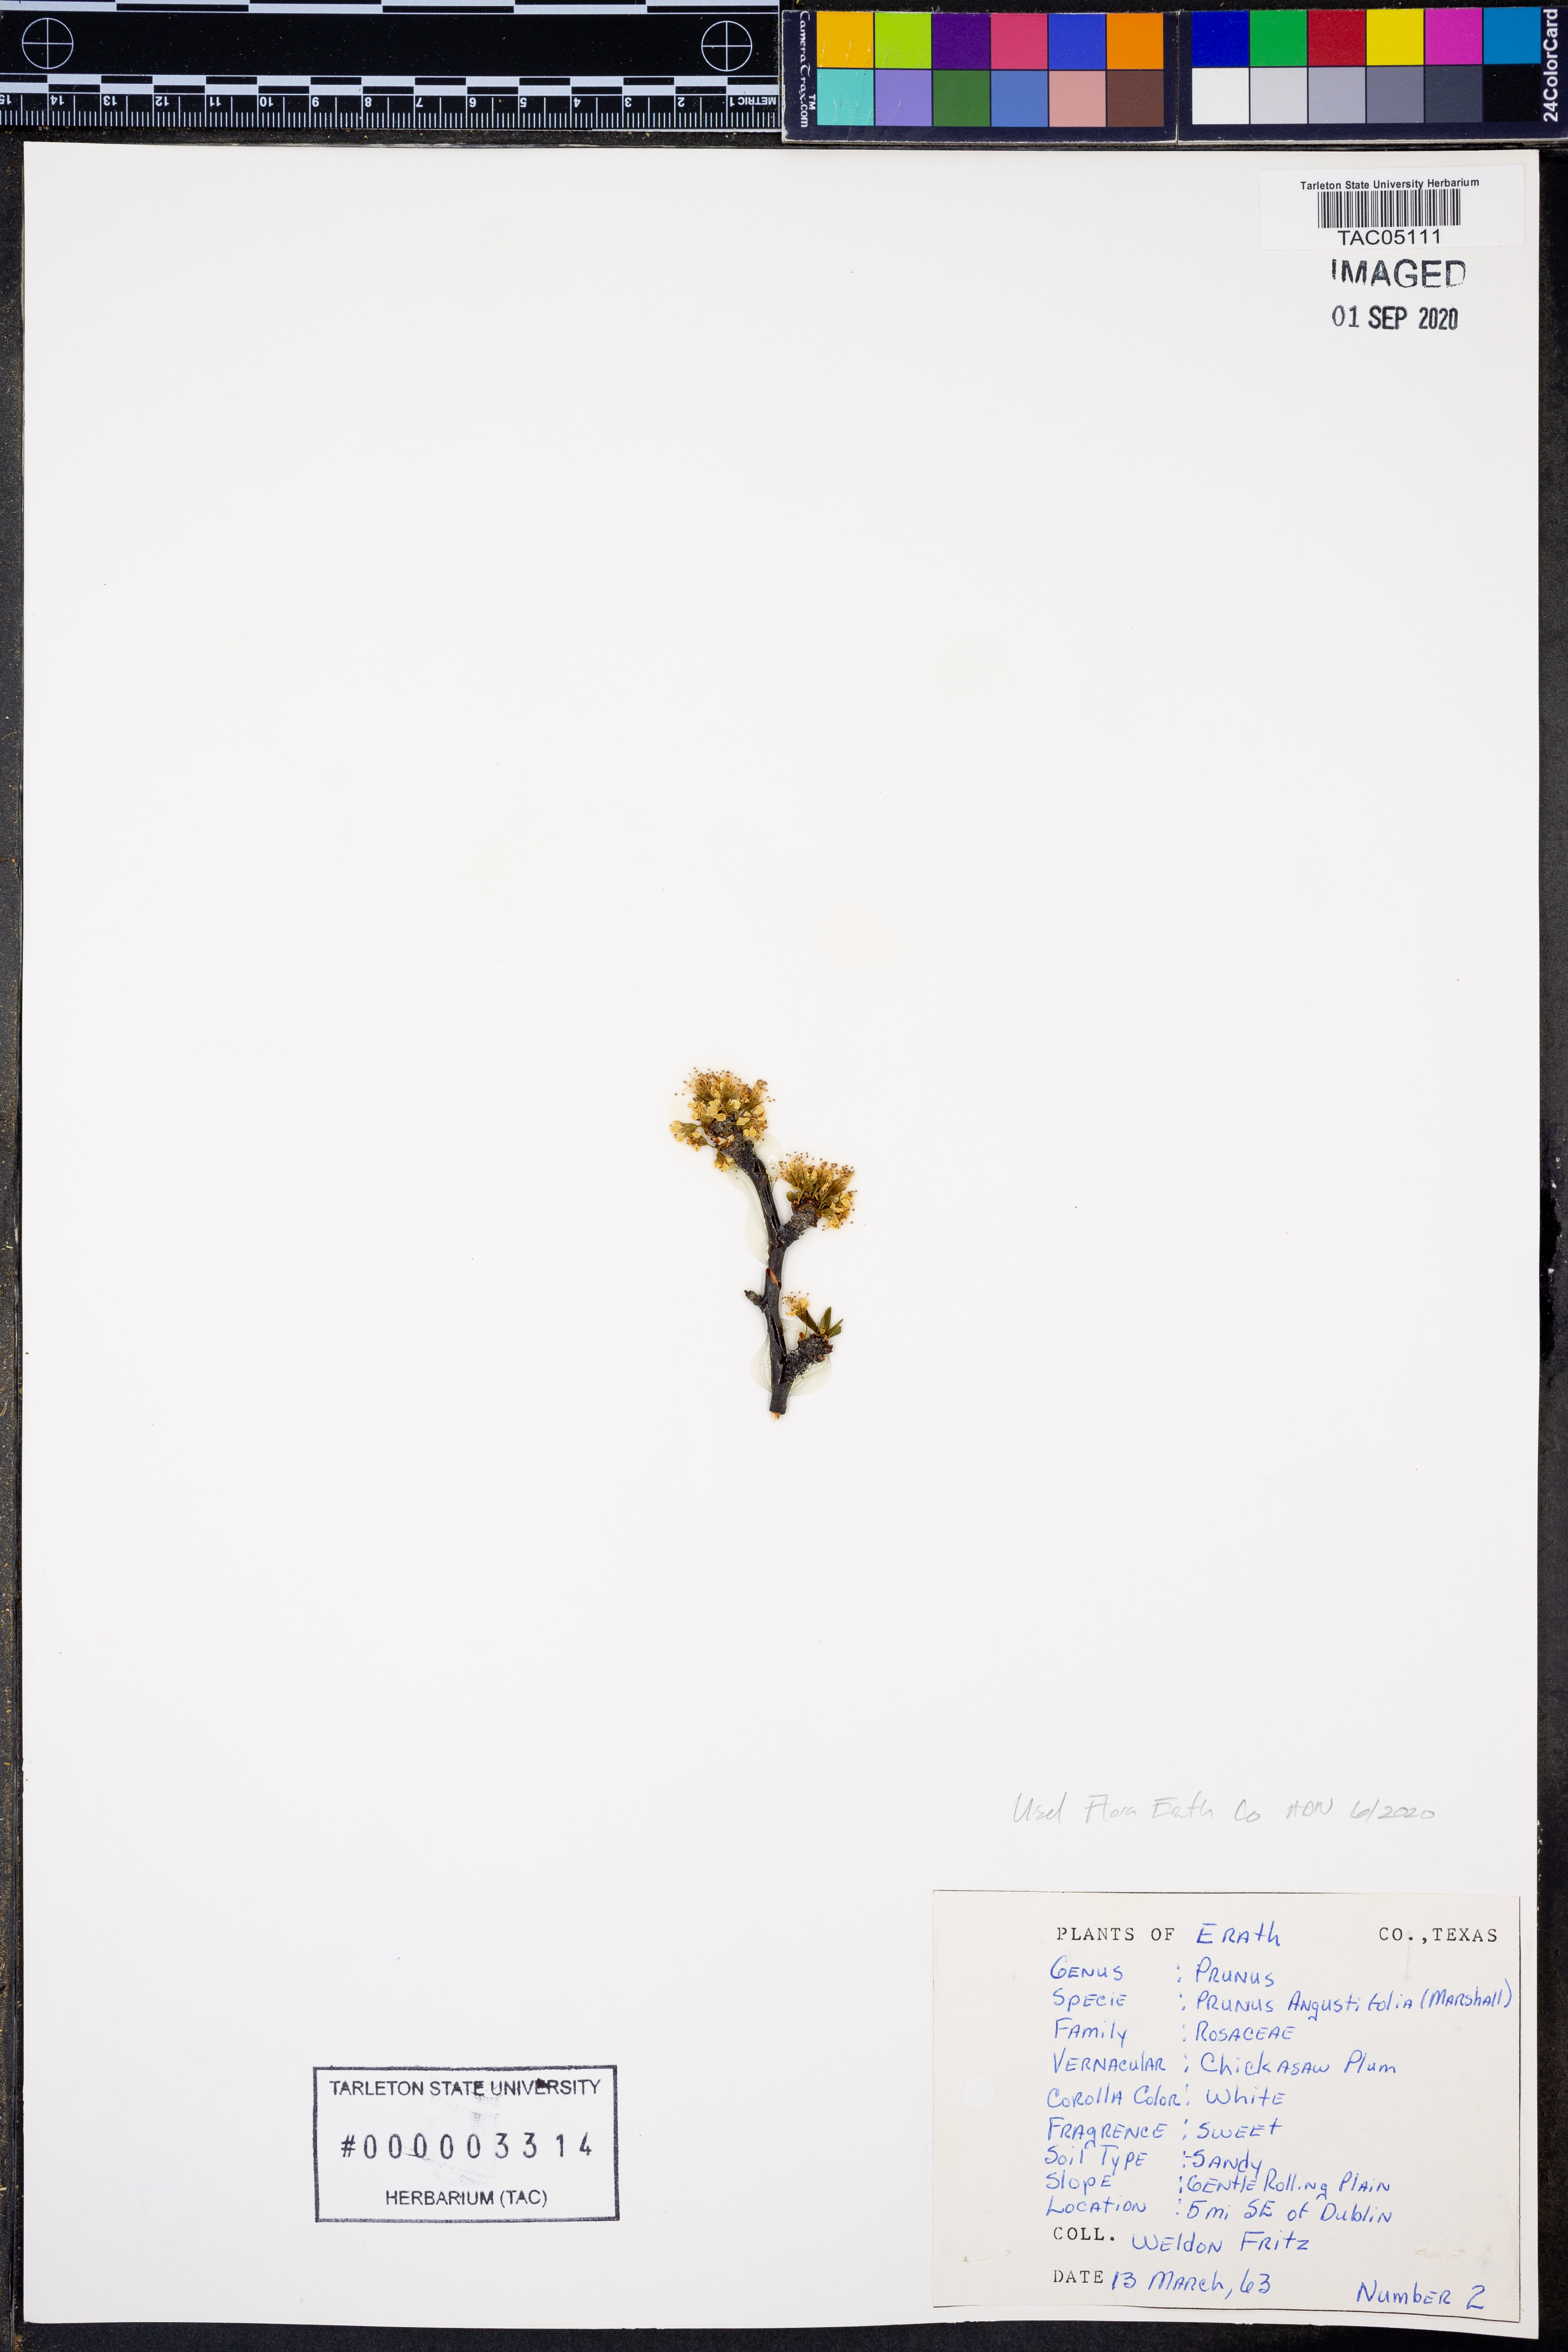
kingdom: Plantae
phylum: Tracheophyta
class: Magnoliopsida
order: Rosales
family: Rosaceae
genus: Prunus
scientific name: Prunus angustifolia
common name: Cherokee plum
